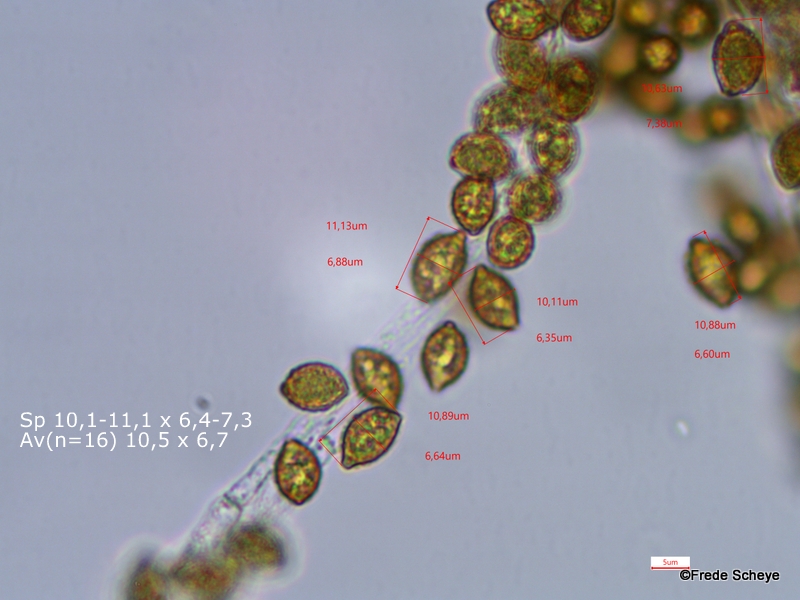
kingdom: Fungi
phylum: Basidiomycota
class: Agaricomycetes
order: Agaricales
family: Cortinariaceae
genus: Cortinarius
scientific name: Cortinarius anserinus
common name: bøge-slørhat
